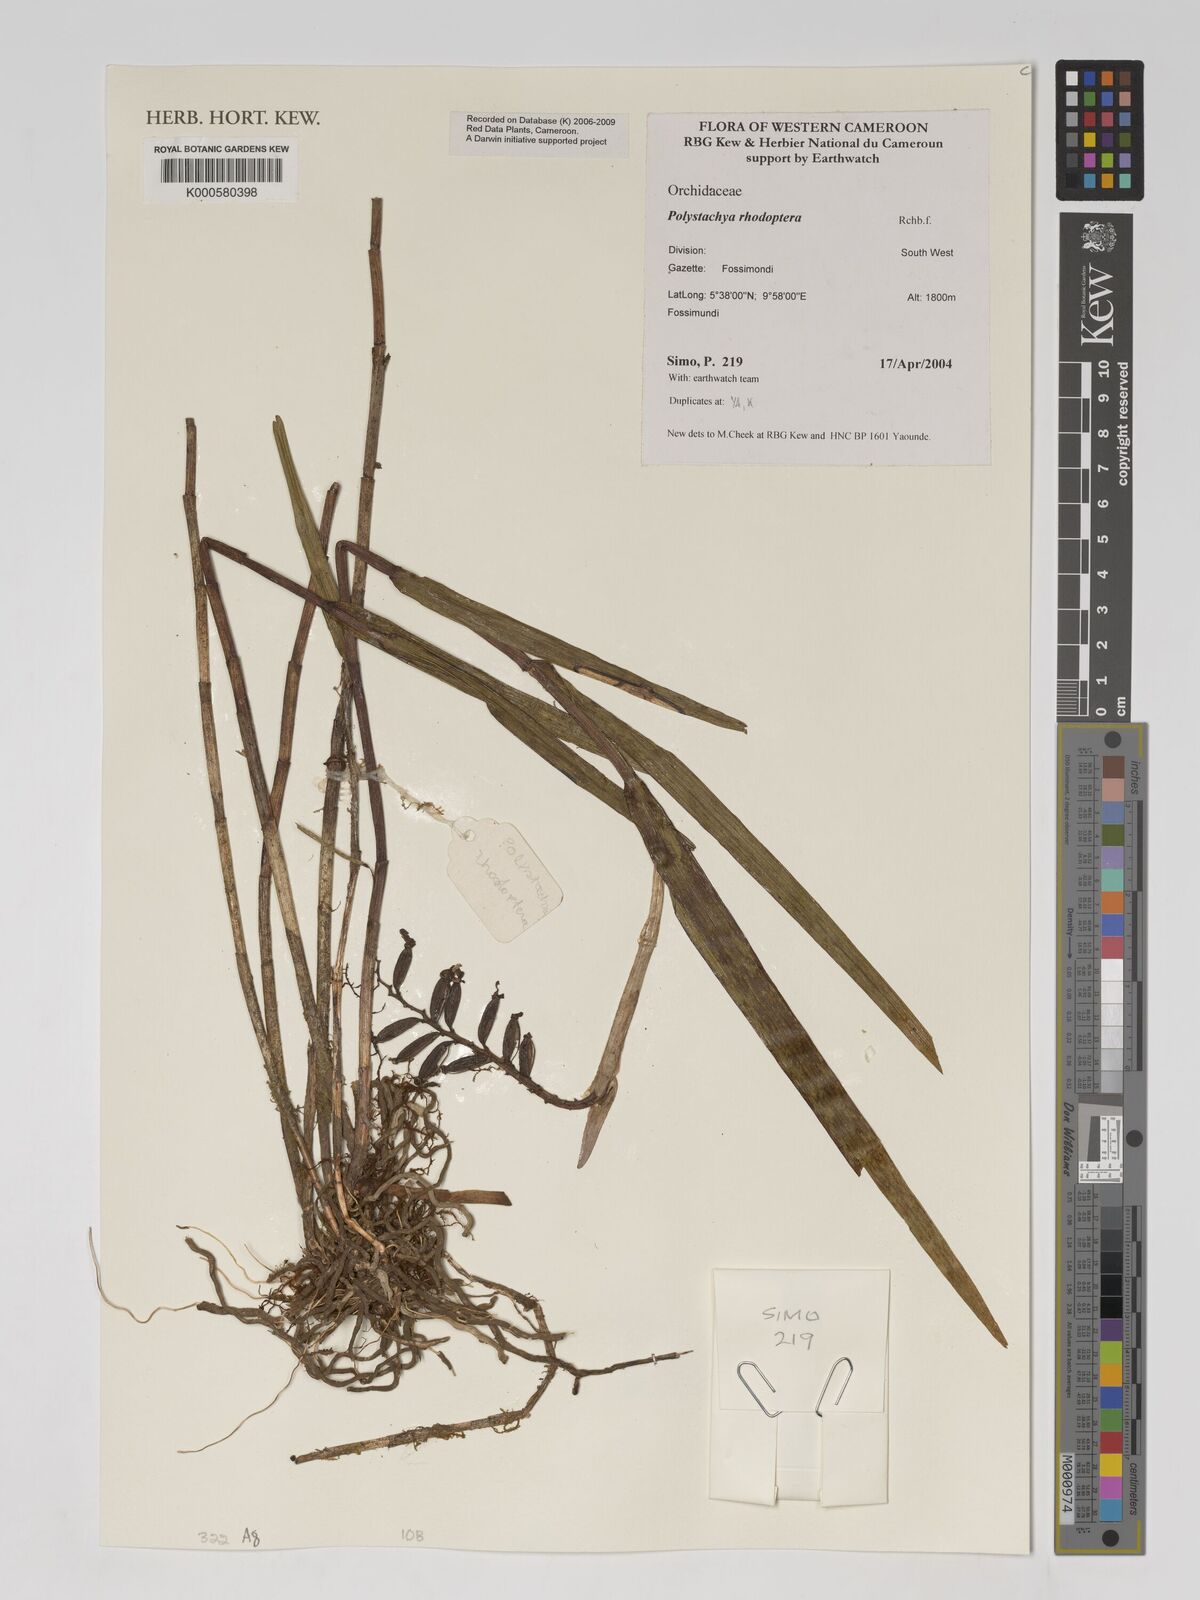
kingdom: Plantae
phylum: Tracheophyta
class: Liliopsida
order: Asparagales
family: Orchidaceae
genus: Polystachya
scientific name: Polystachya rhodoptera
